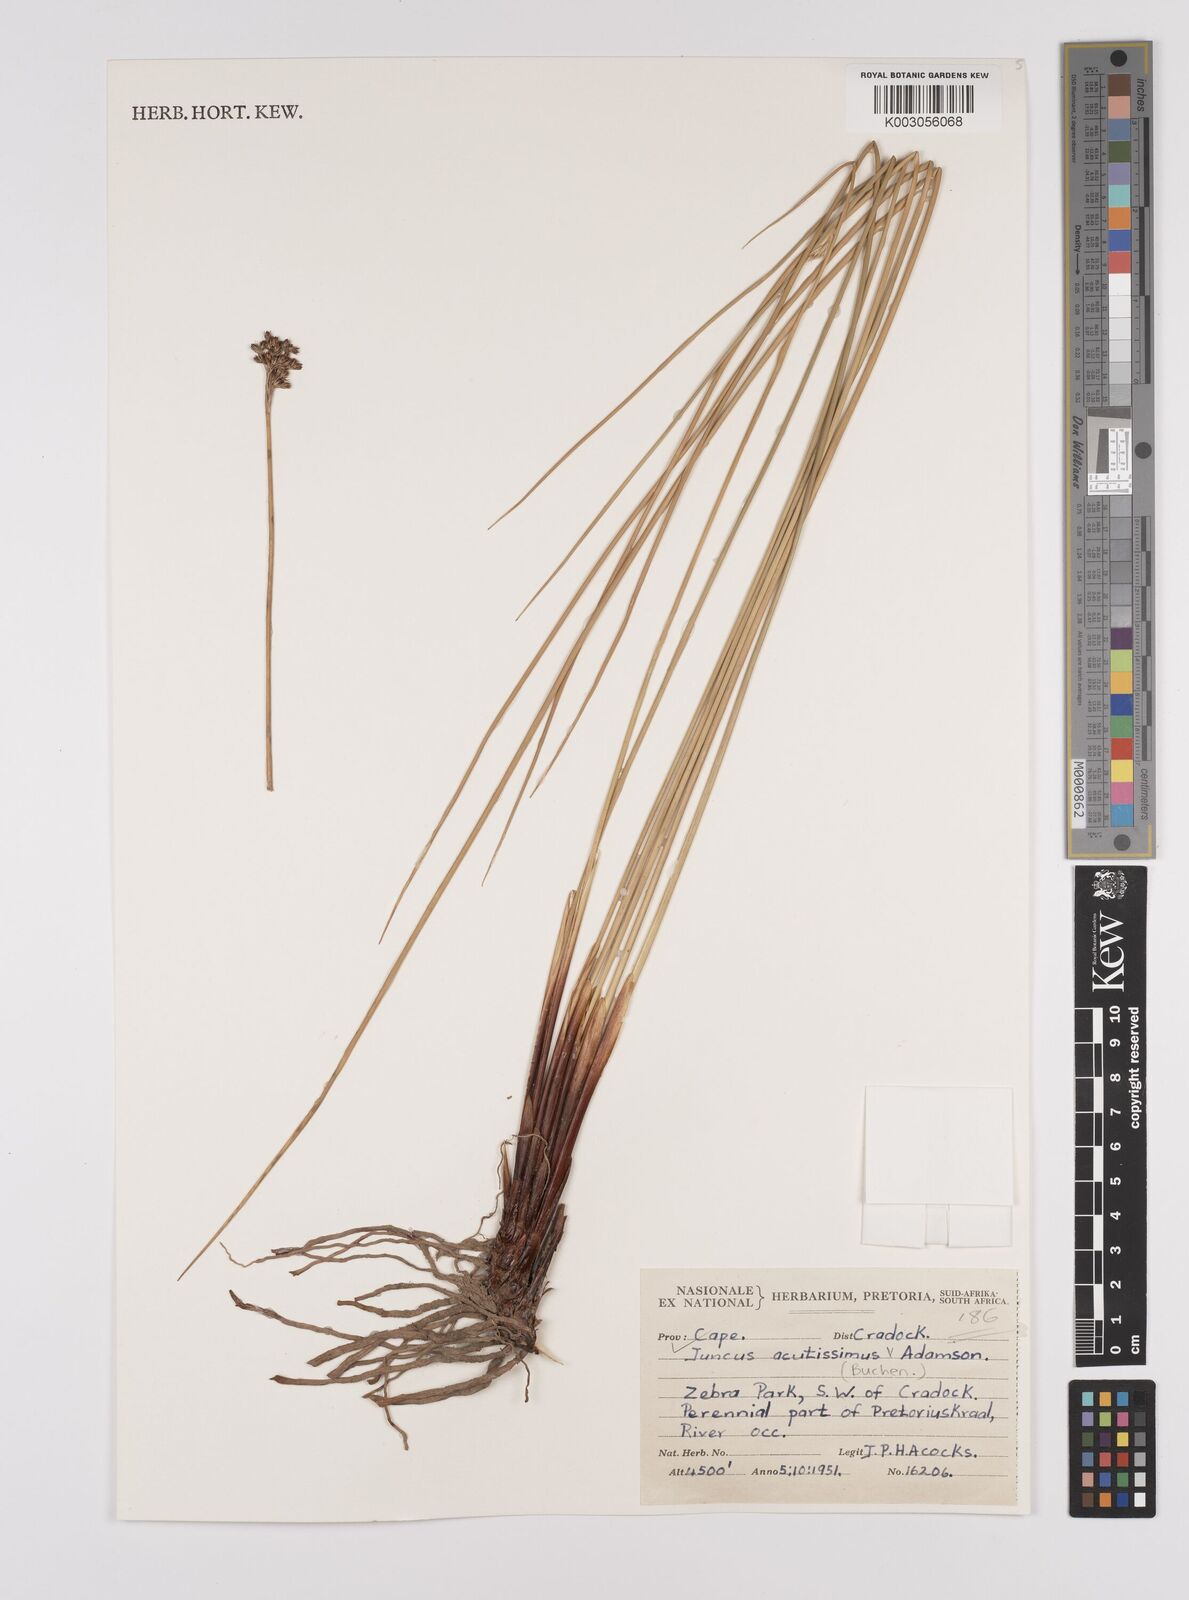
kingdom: Plantae
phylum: Tracheophyta
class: Liliopsida
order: Poales
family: Juncaceae
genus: Juncus
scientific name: Juncus inflexus
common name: Hard rush
